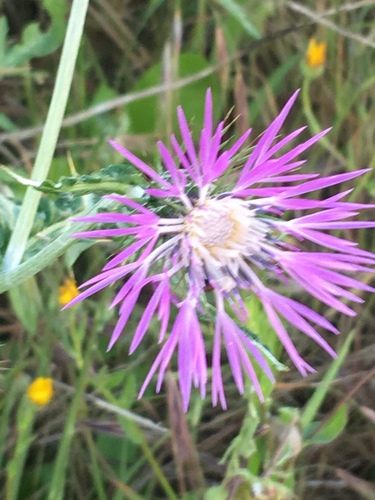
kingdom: Plantae
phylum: Tracheophyta
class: Magnoliopsida
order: Asterales
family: Asteraceae
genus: Galactites
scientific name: Galactites tomentosa
